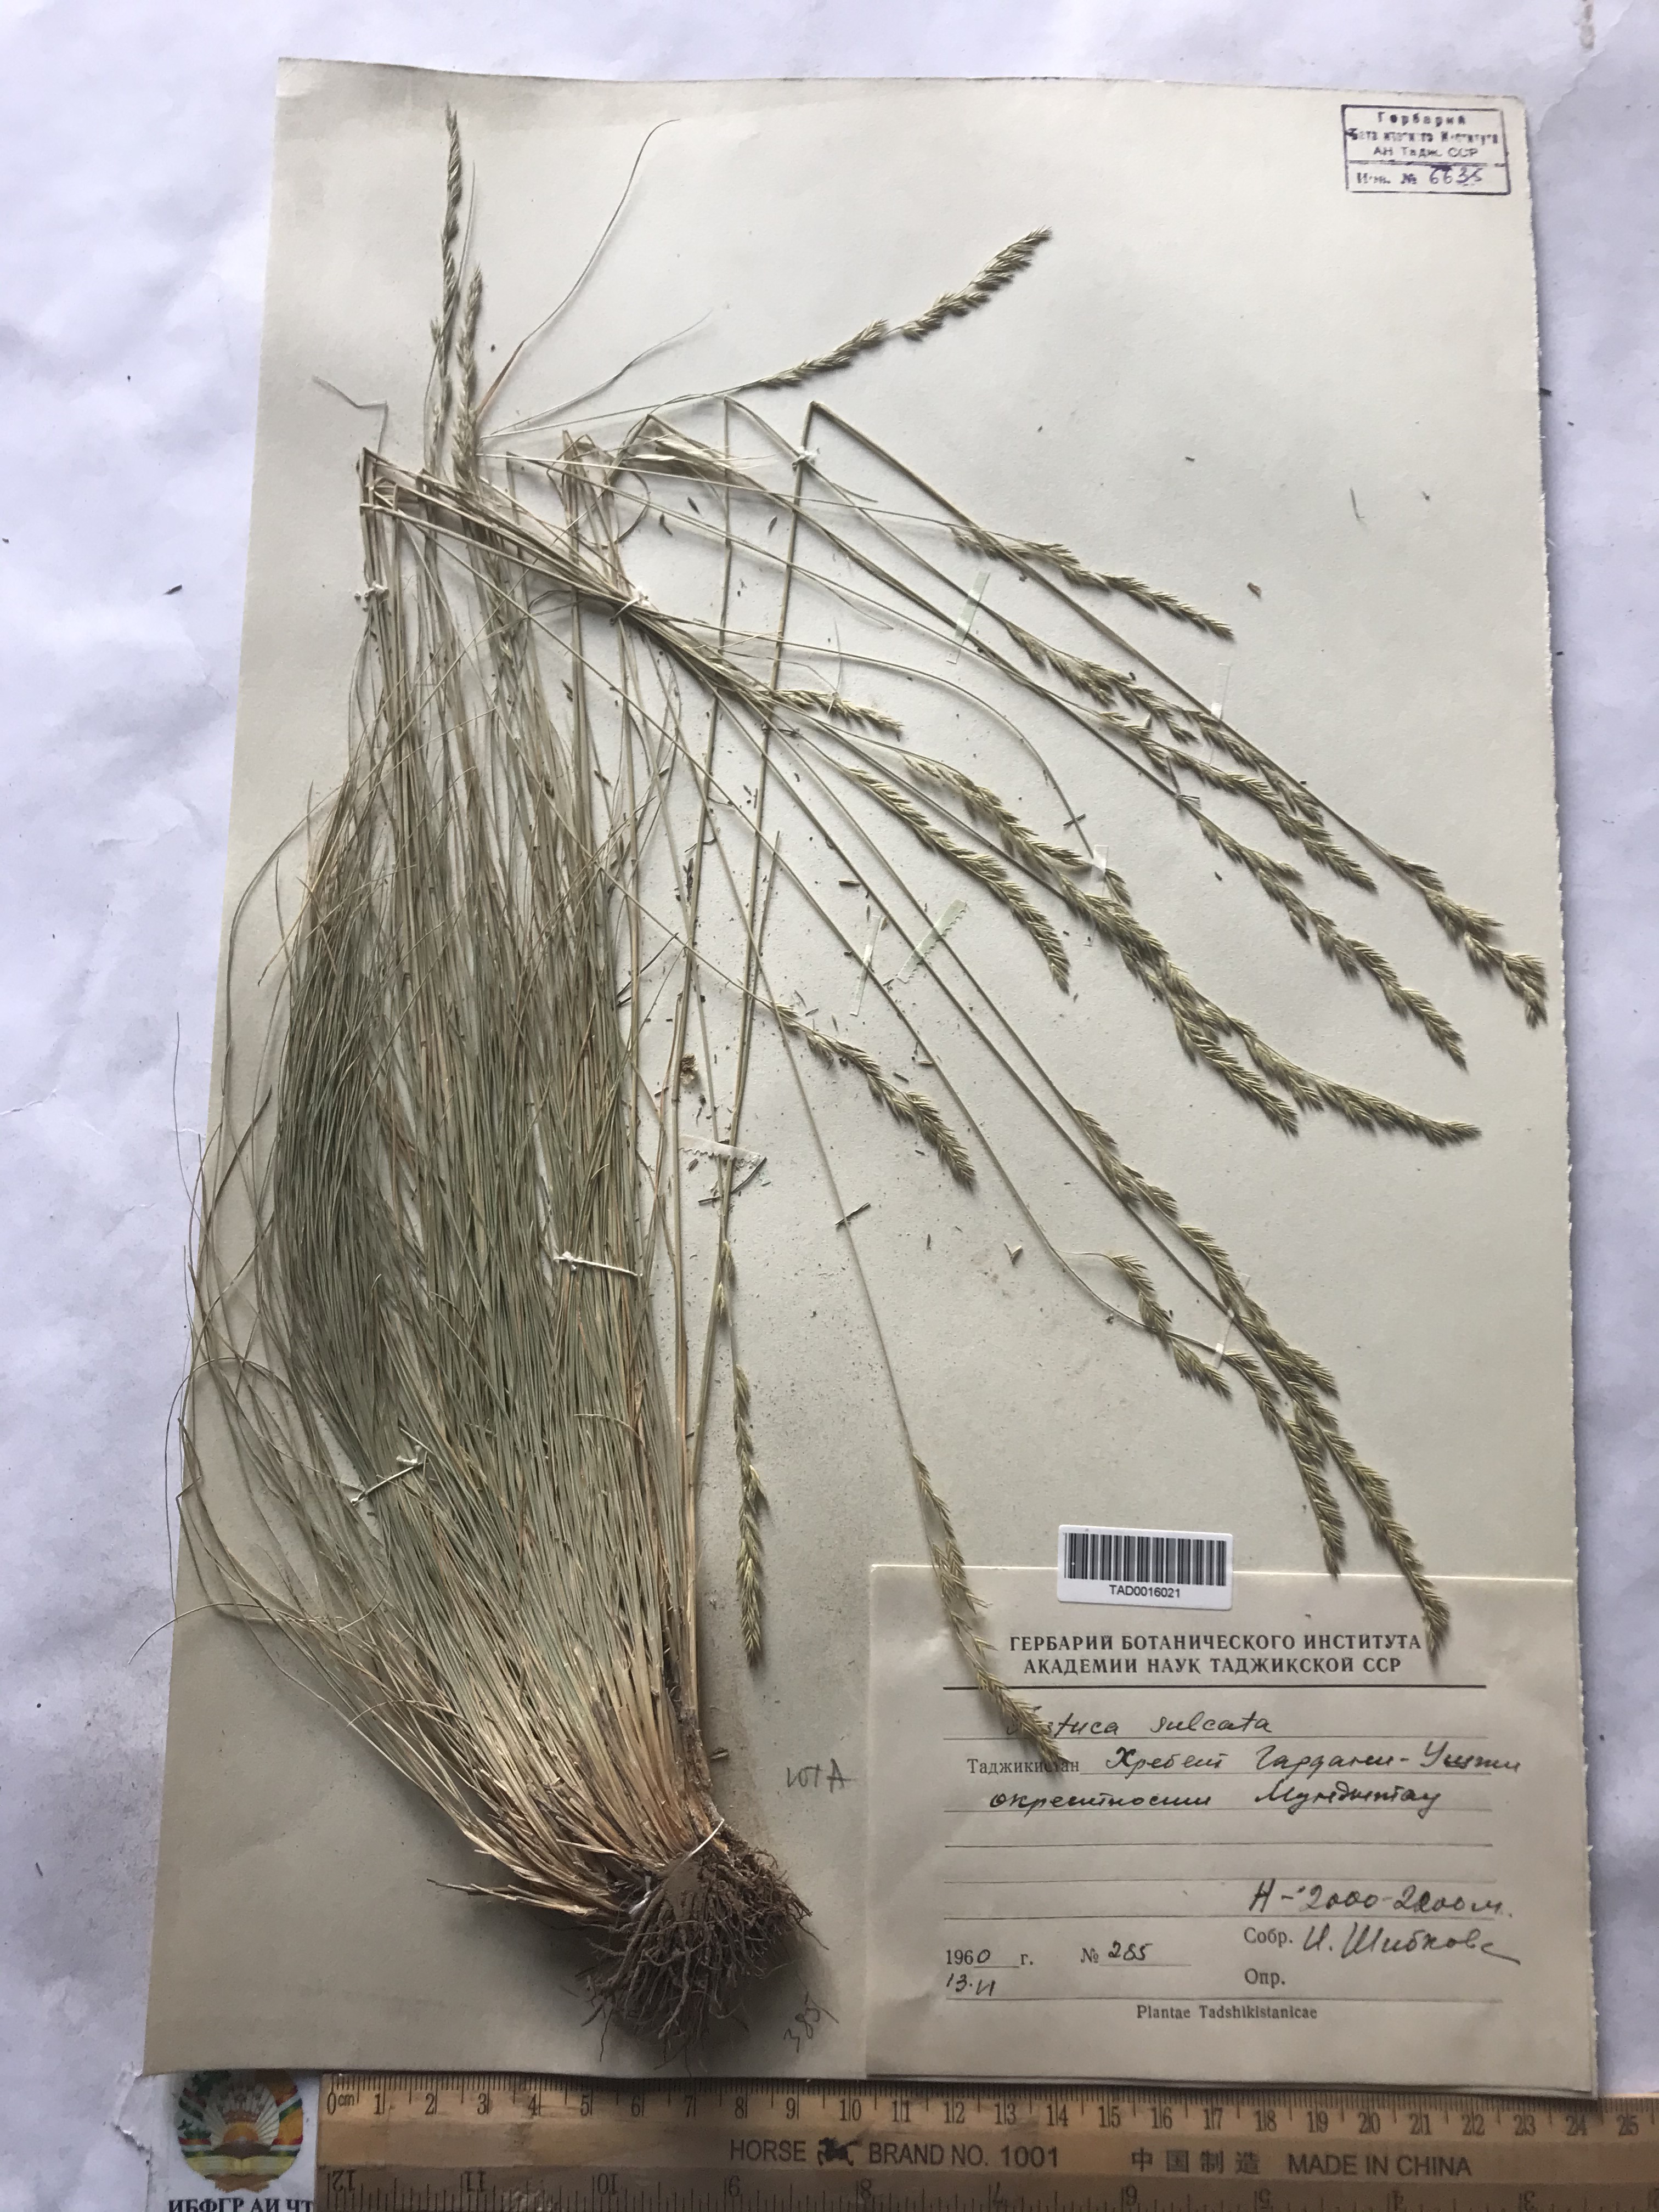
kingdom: Plantae
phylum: Tracheophyta
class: Liliopsida
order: Poales
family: Poaceae
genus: Festuca
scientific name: Festuca sulcata
